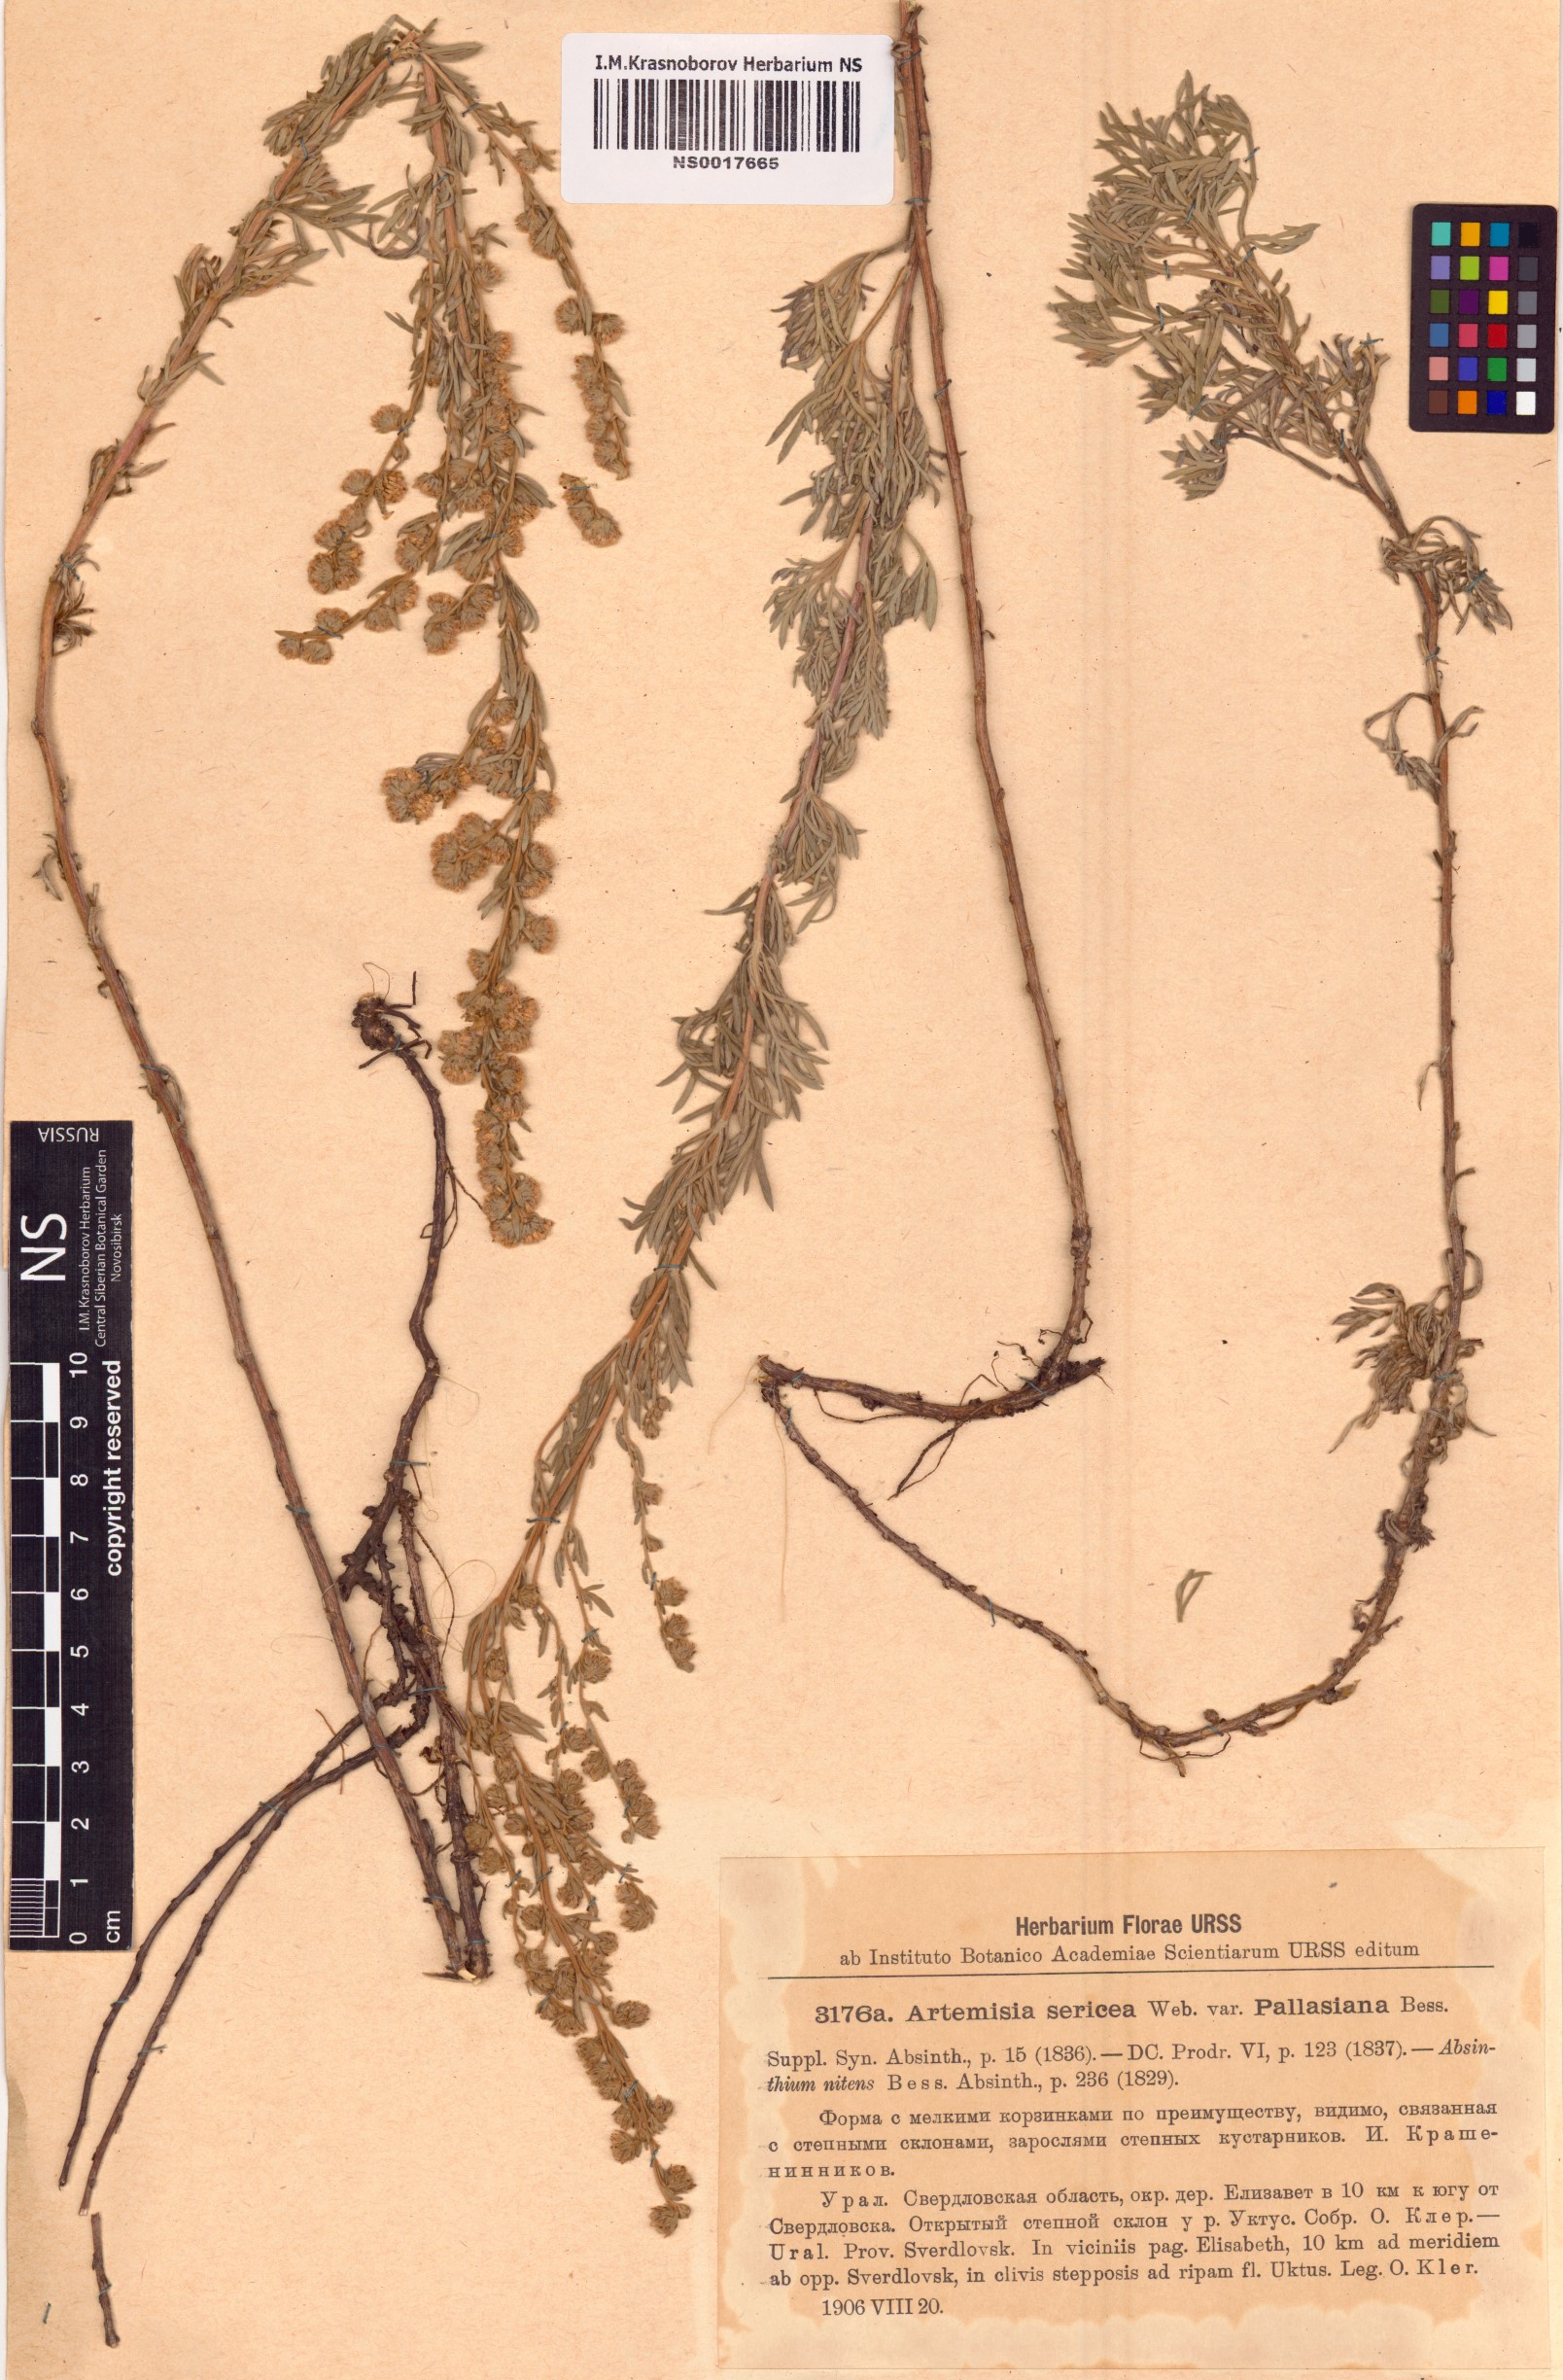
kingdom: Plantae
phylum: Tracheophyta
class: Magnoliopsida
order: Asterales
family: Asteraceae
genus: Artemisia
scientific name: Artemisia sericea
